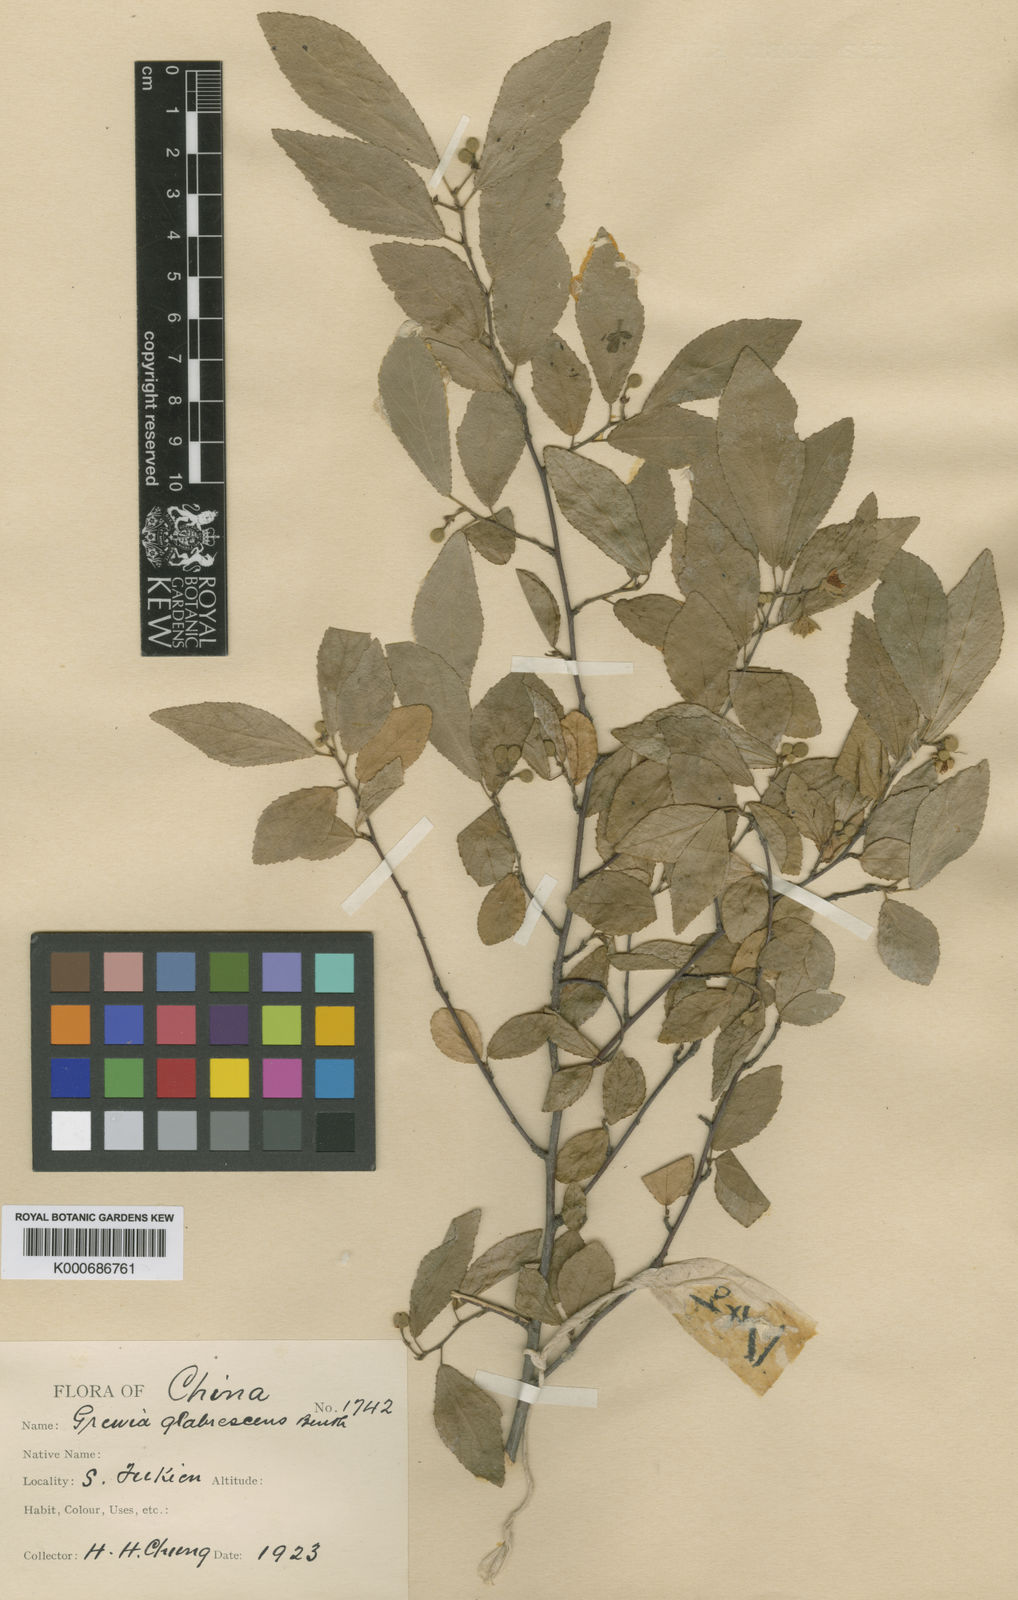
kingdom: Plantae
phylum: Tracheophyta
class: Magnoliopsida
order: Malvales
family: Malvaceae
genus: Grewia
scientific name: Grewia biloba
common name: Bilobed grewia
